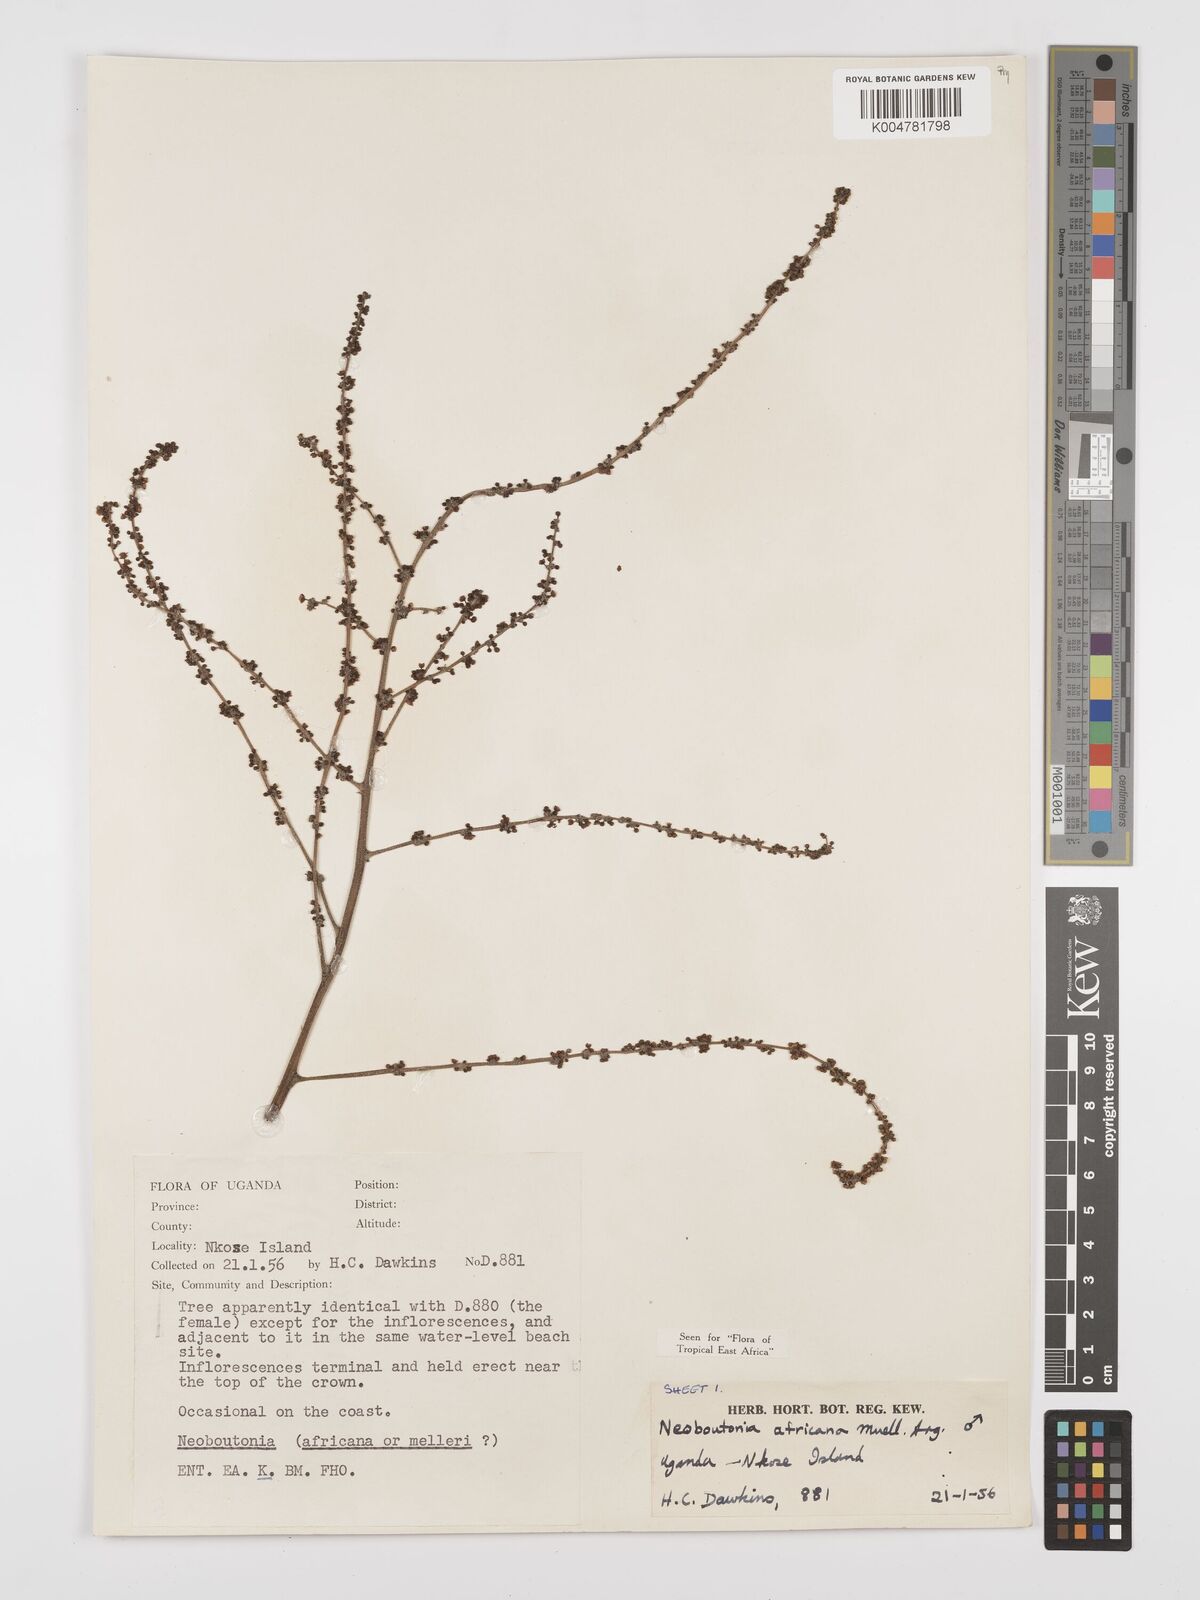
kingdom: Plantae
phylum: Tracheophyta
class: Magnoliopsida
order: Malpighiales
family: Euphorbiaceae
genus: Neoboutonia
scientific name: Neoboutonia melleri
